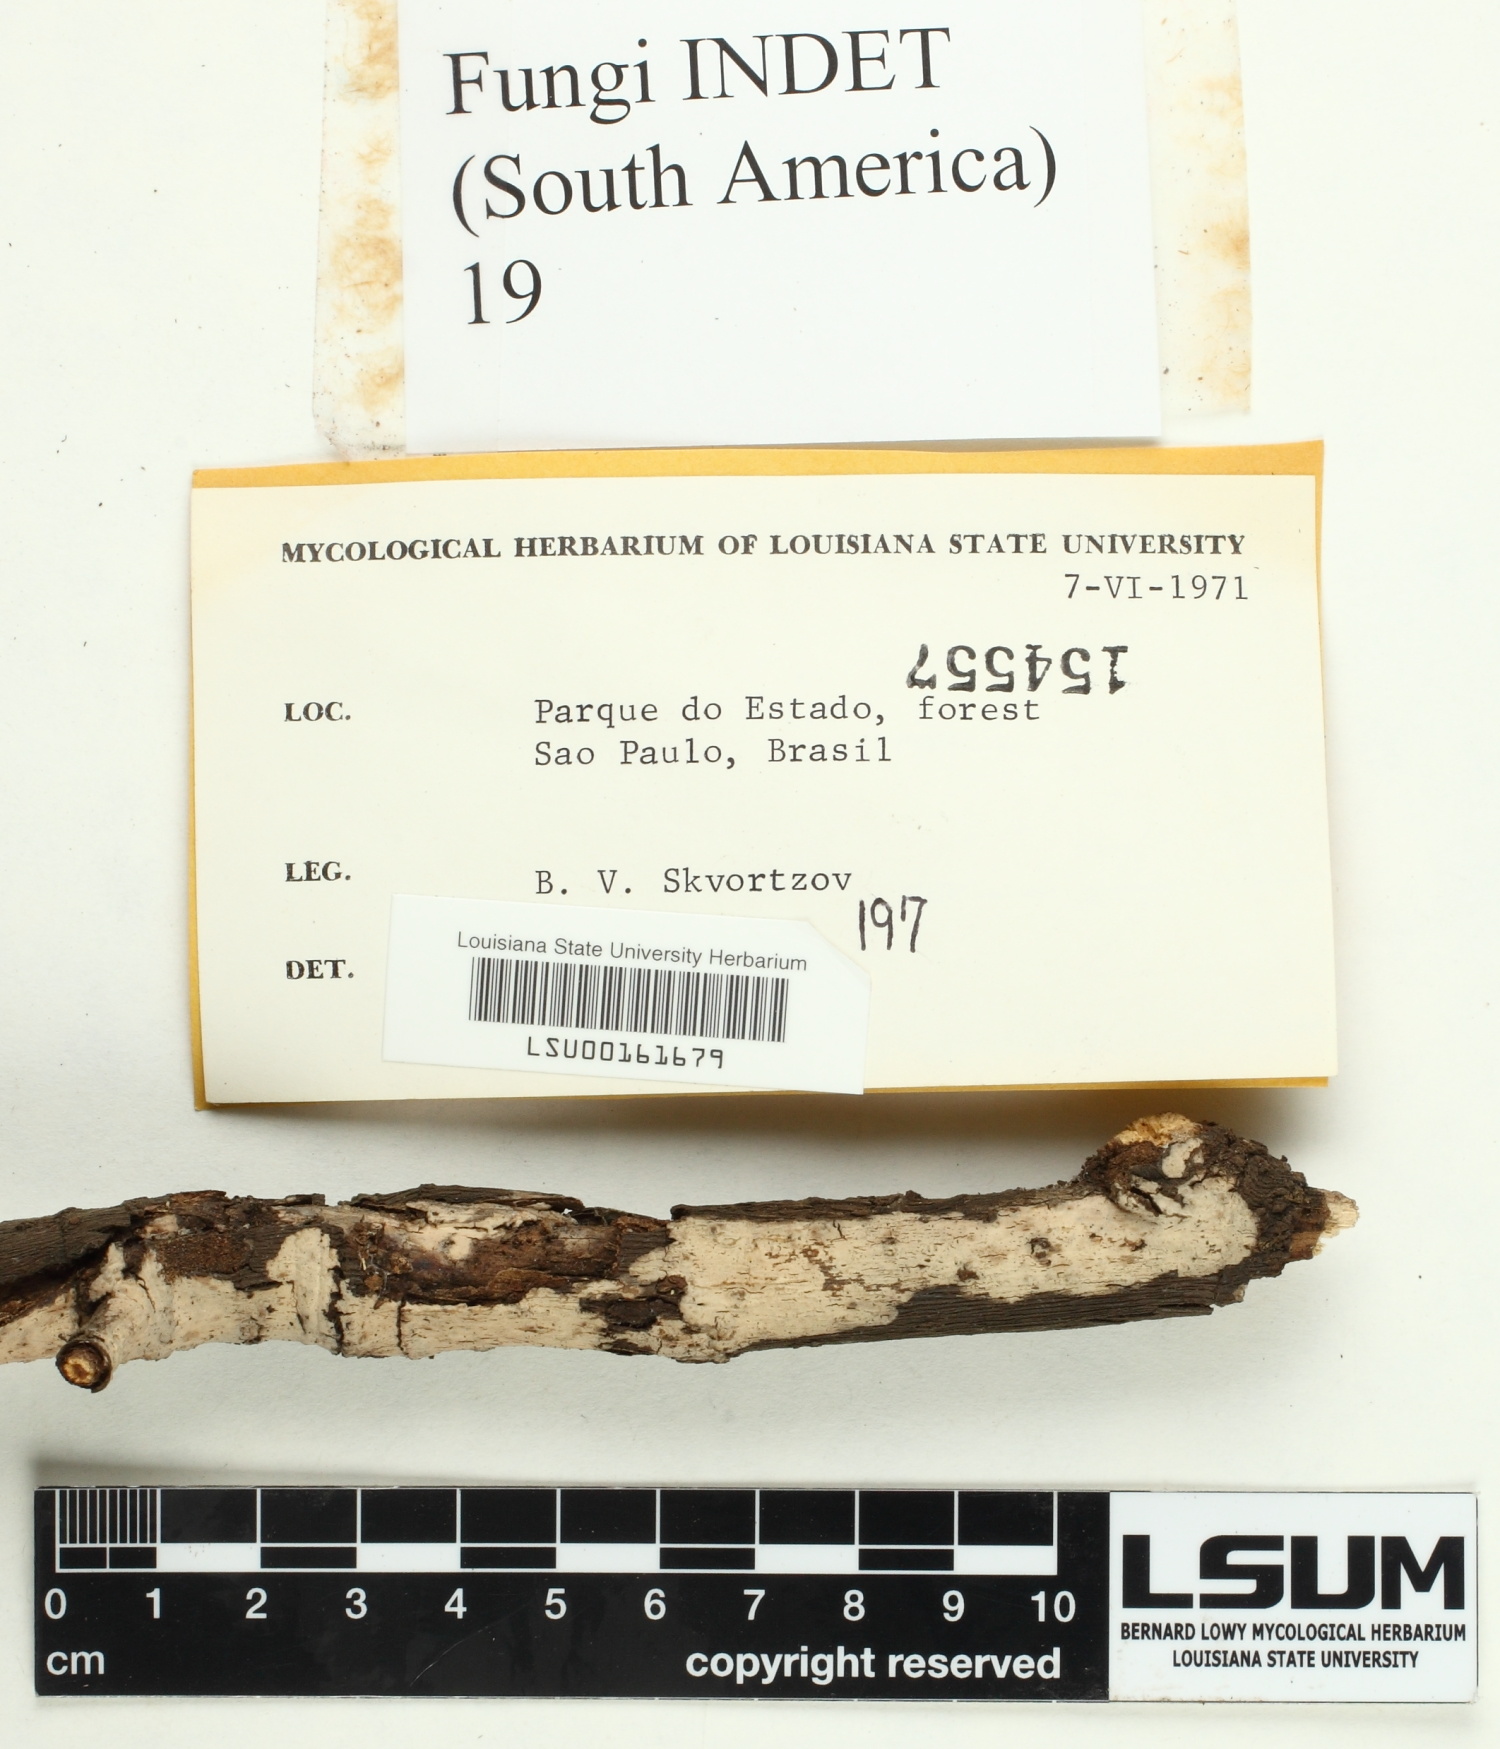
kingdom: Fungi
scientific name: Fungi
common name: Fungi
